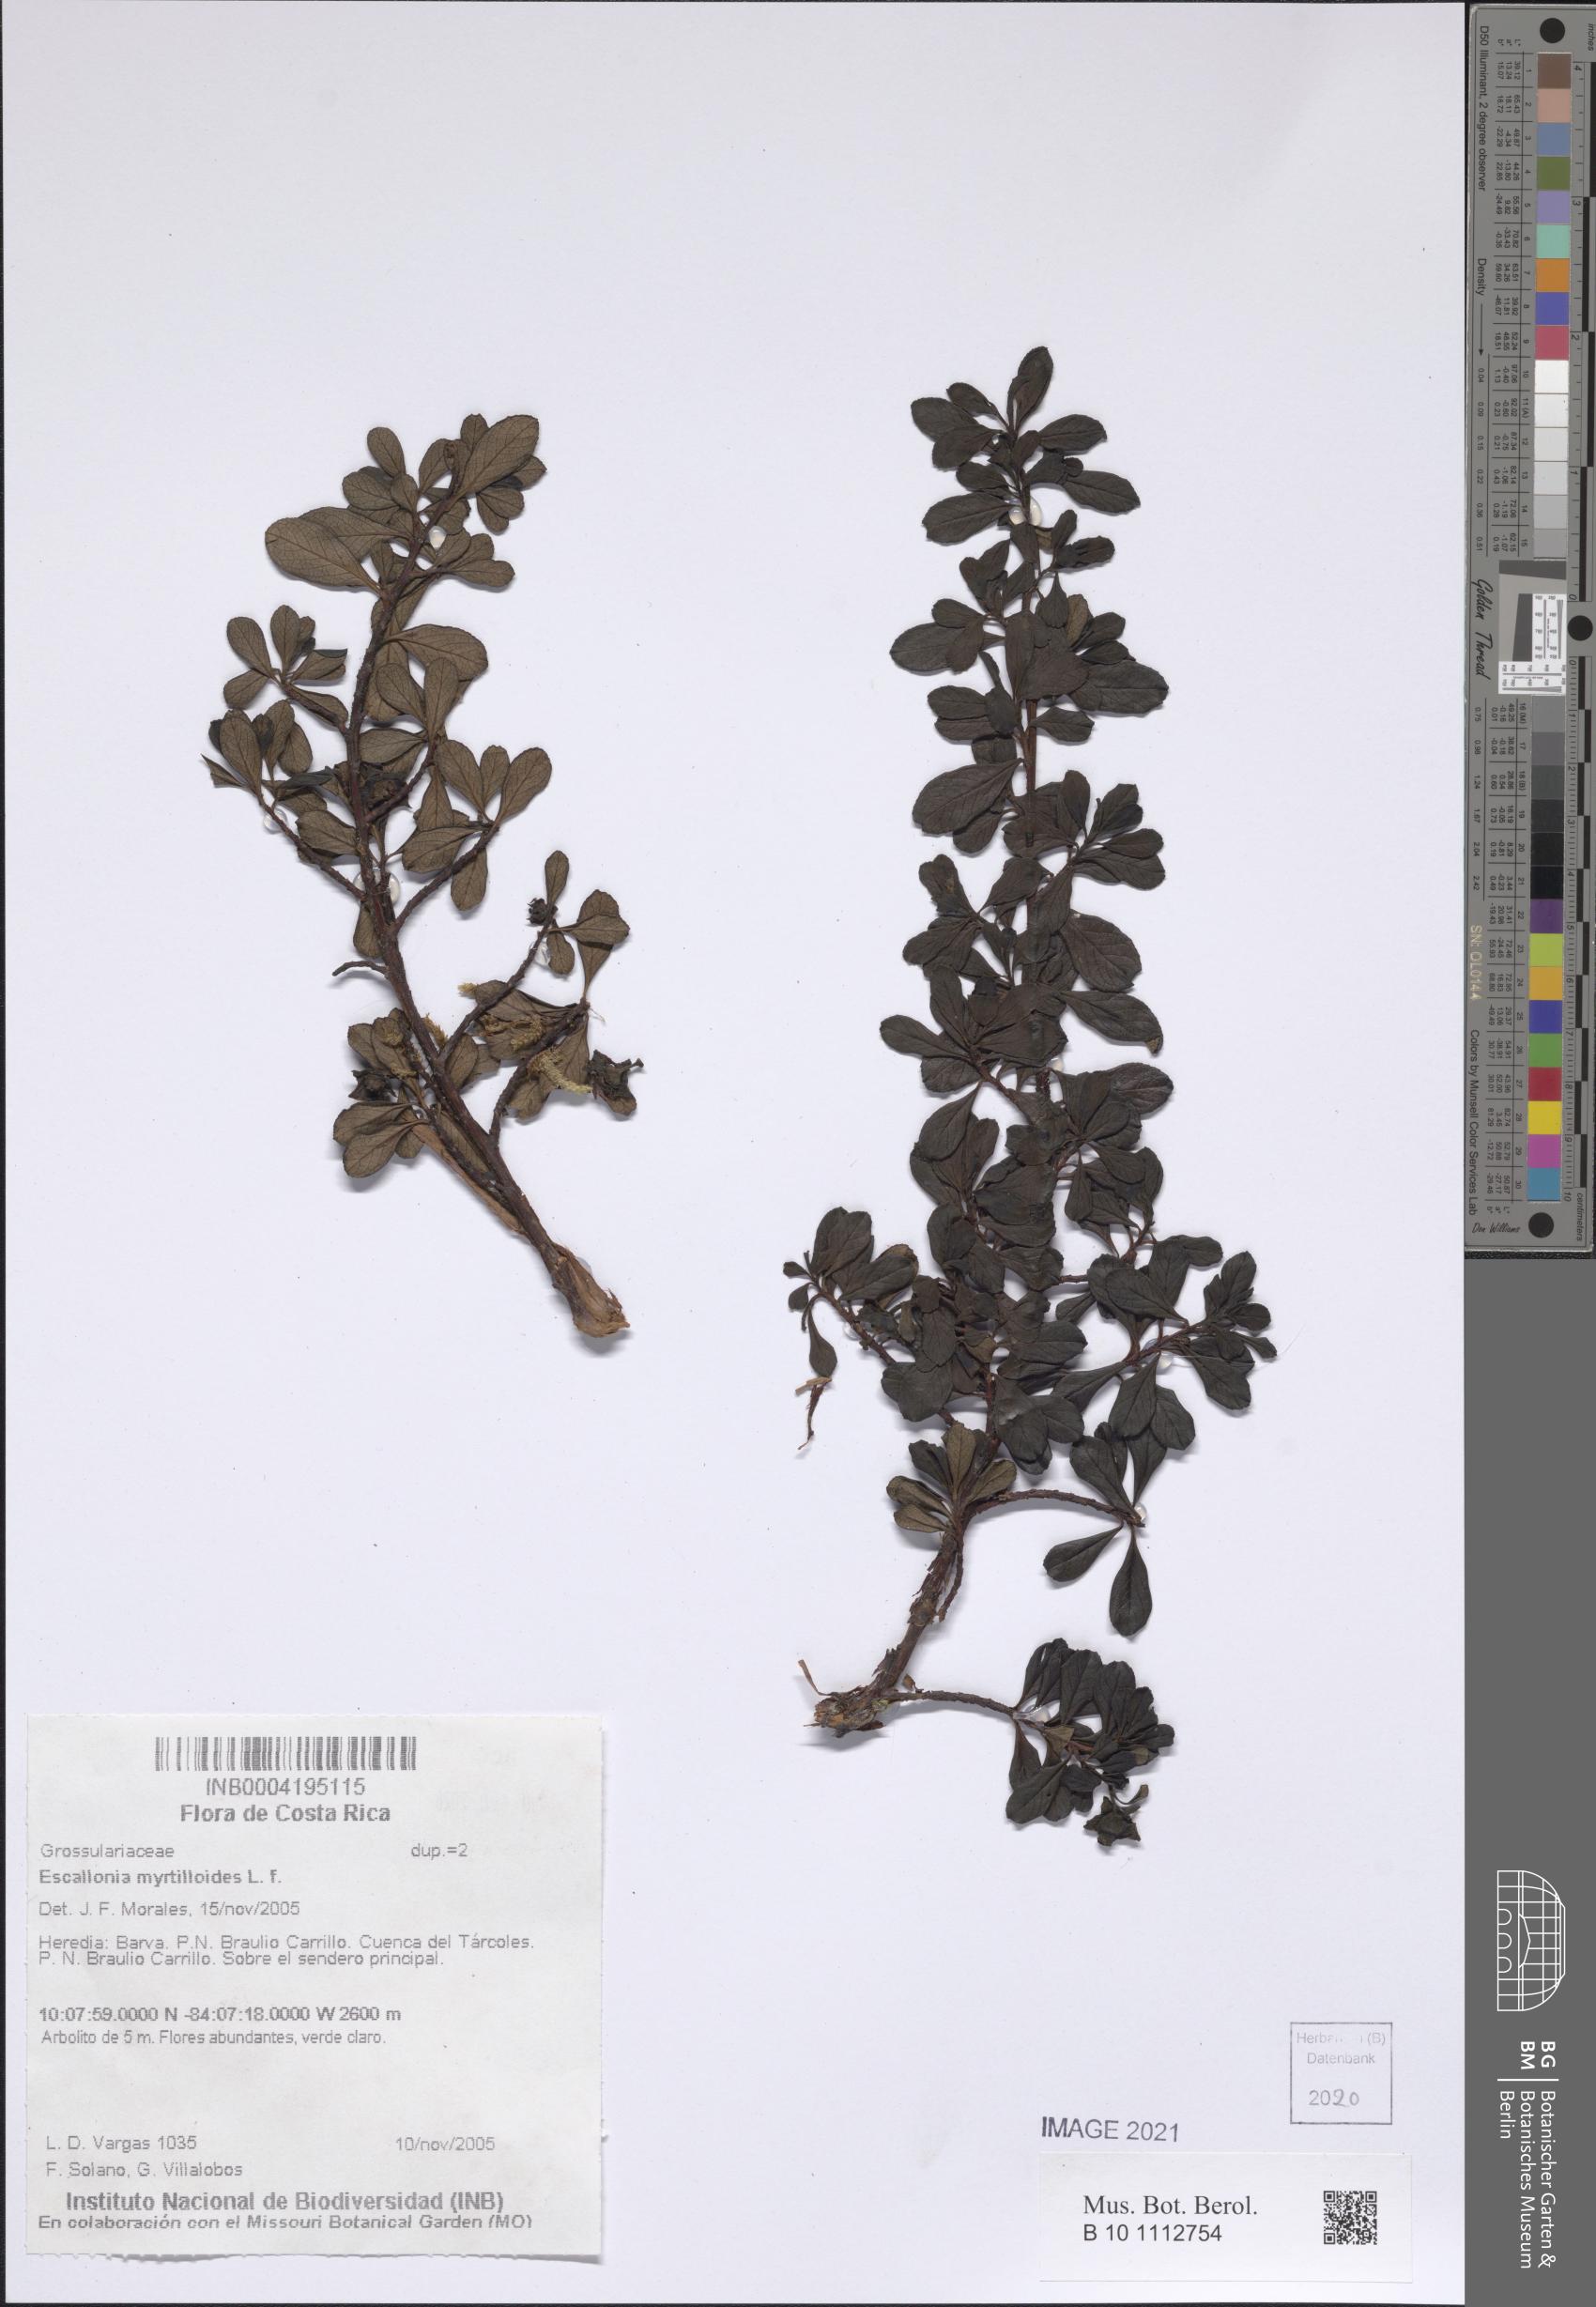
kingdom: Plantae
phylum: Tracheophyta
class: Magnoliopsida
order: Escalloniales
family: Escalloniaceae
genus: Escallonia
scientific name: Escallonia myrtilloides
